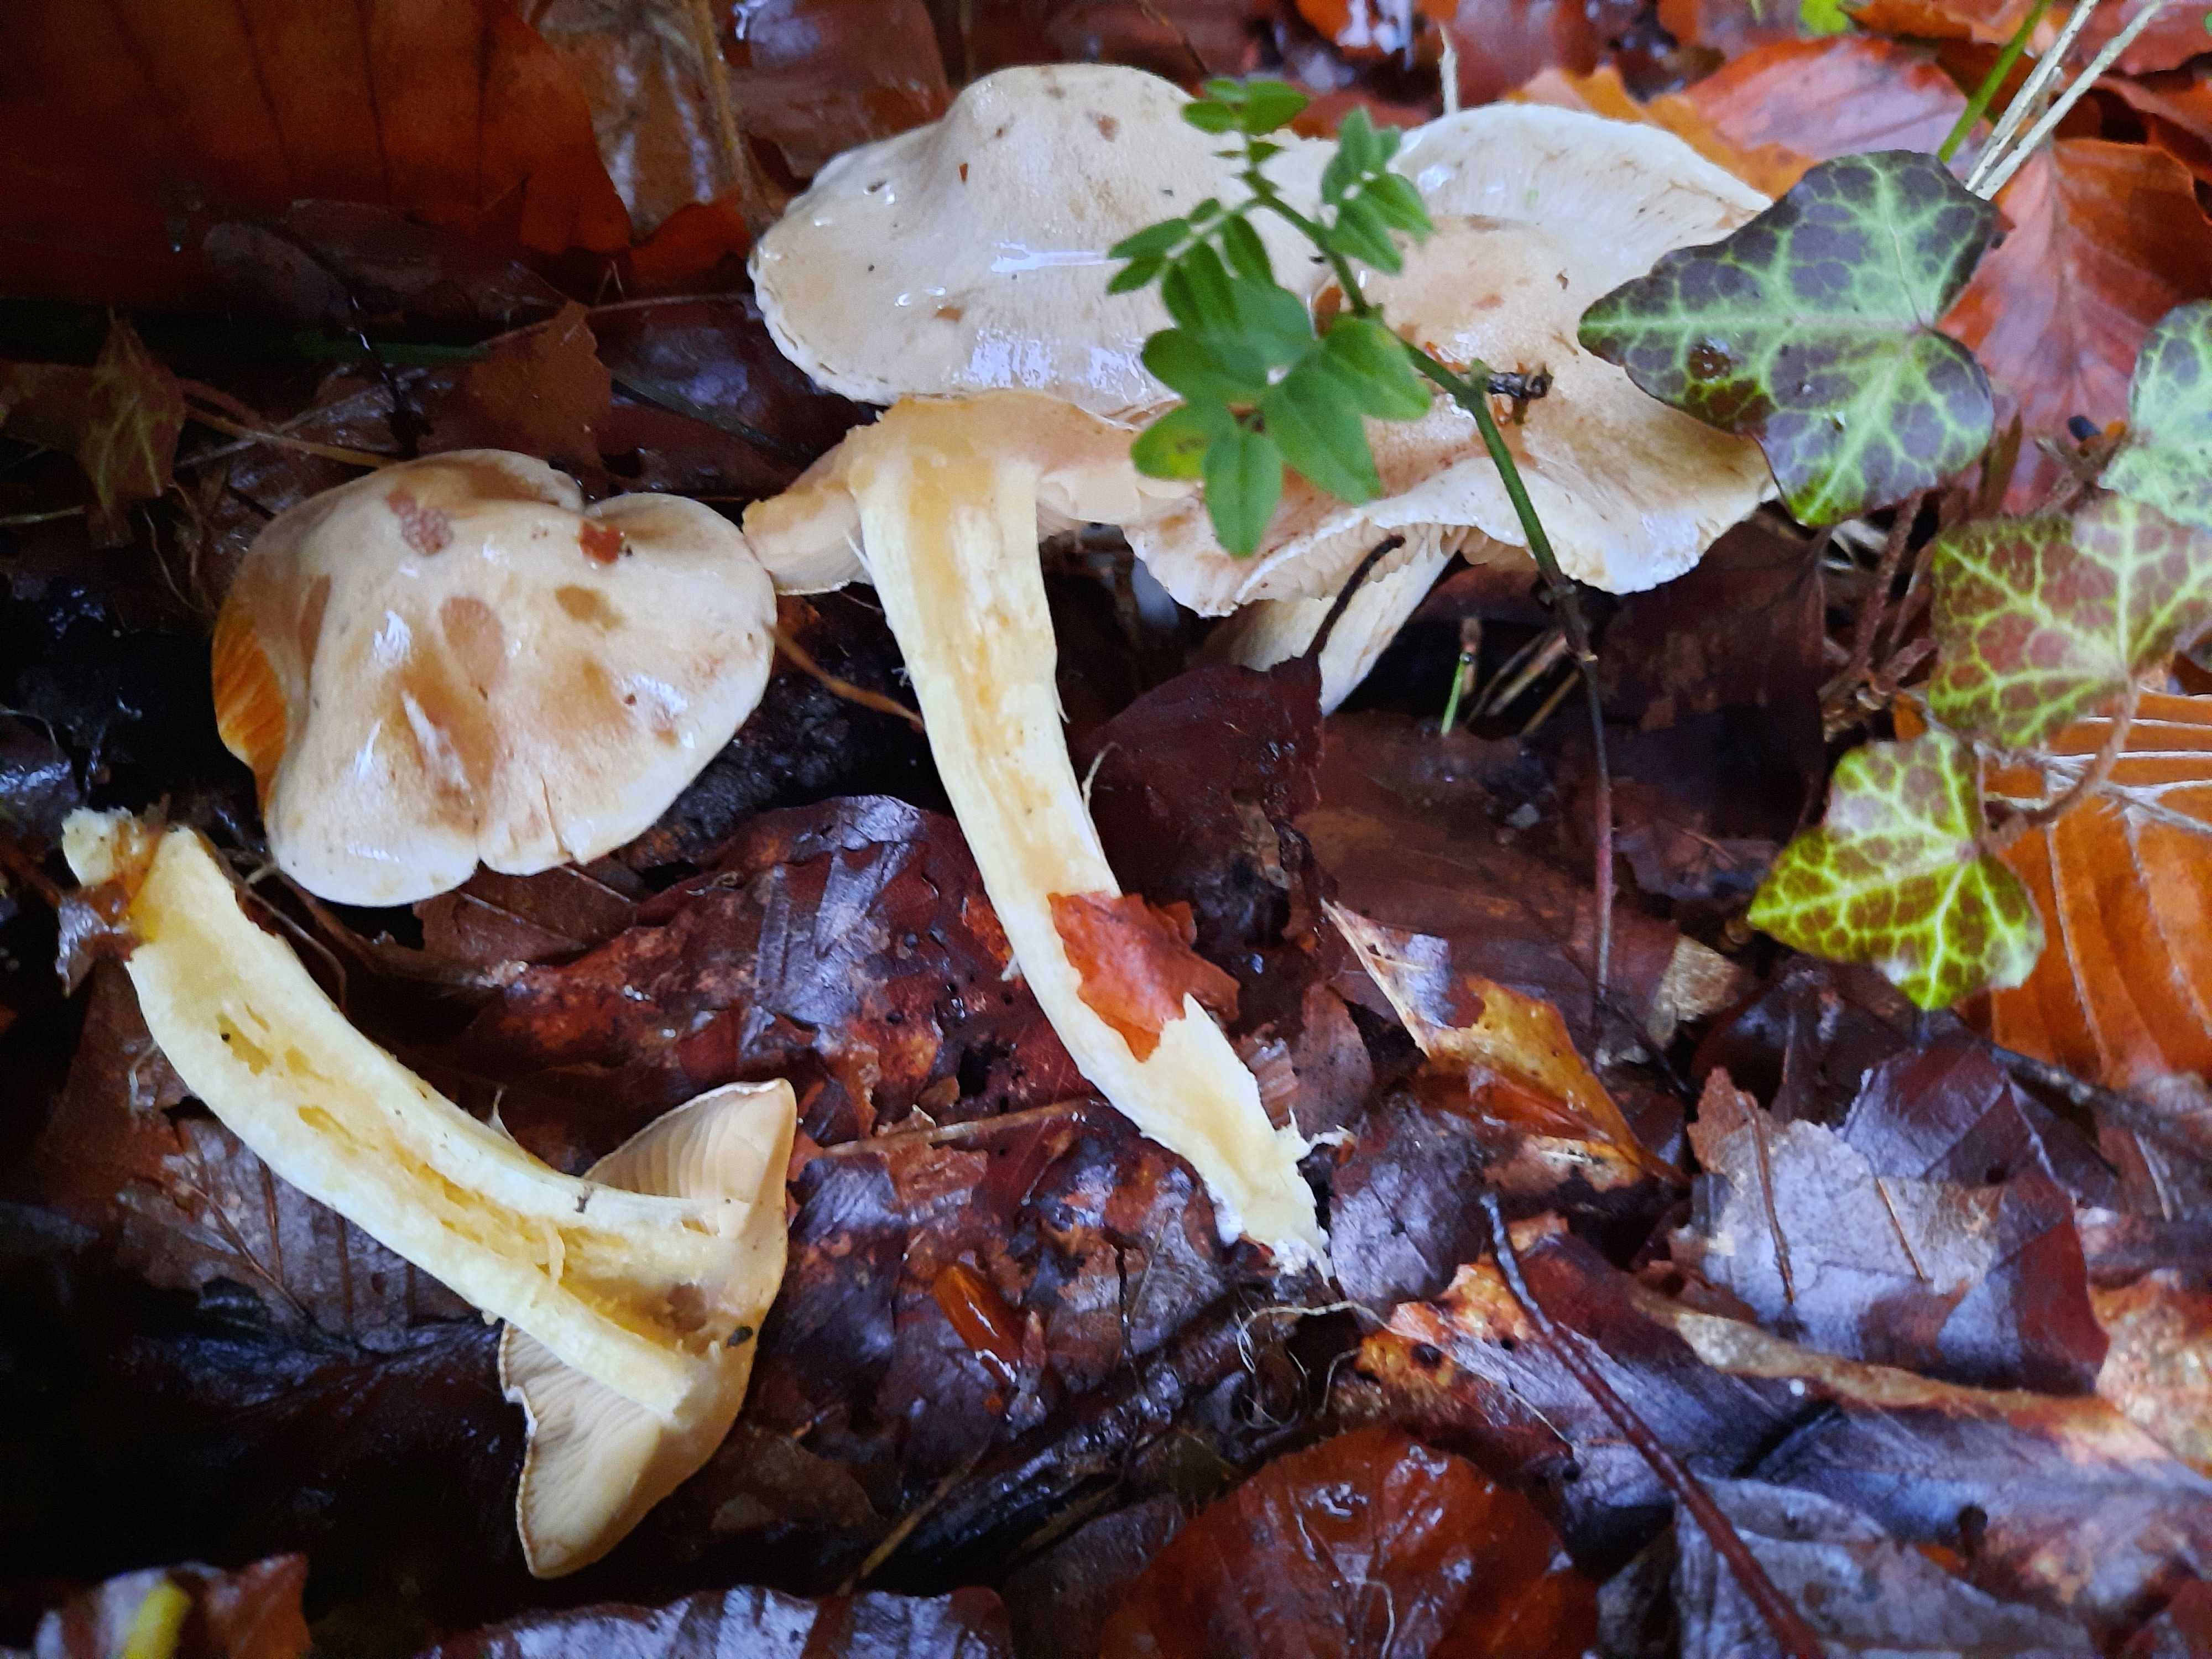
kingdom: Fungi
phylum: Basidiomycota
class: Agaricomycetes
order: Agaricales
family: Cortinariaceae
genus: Thaxterogaster
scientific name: Thaxterogaster barbatus
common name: elfenbens-slørhat
